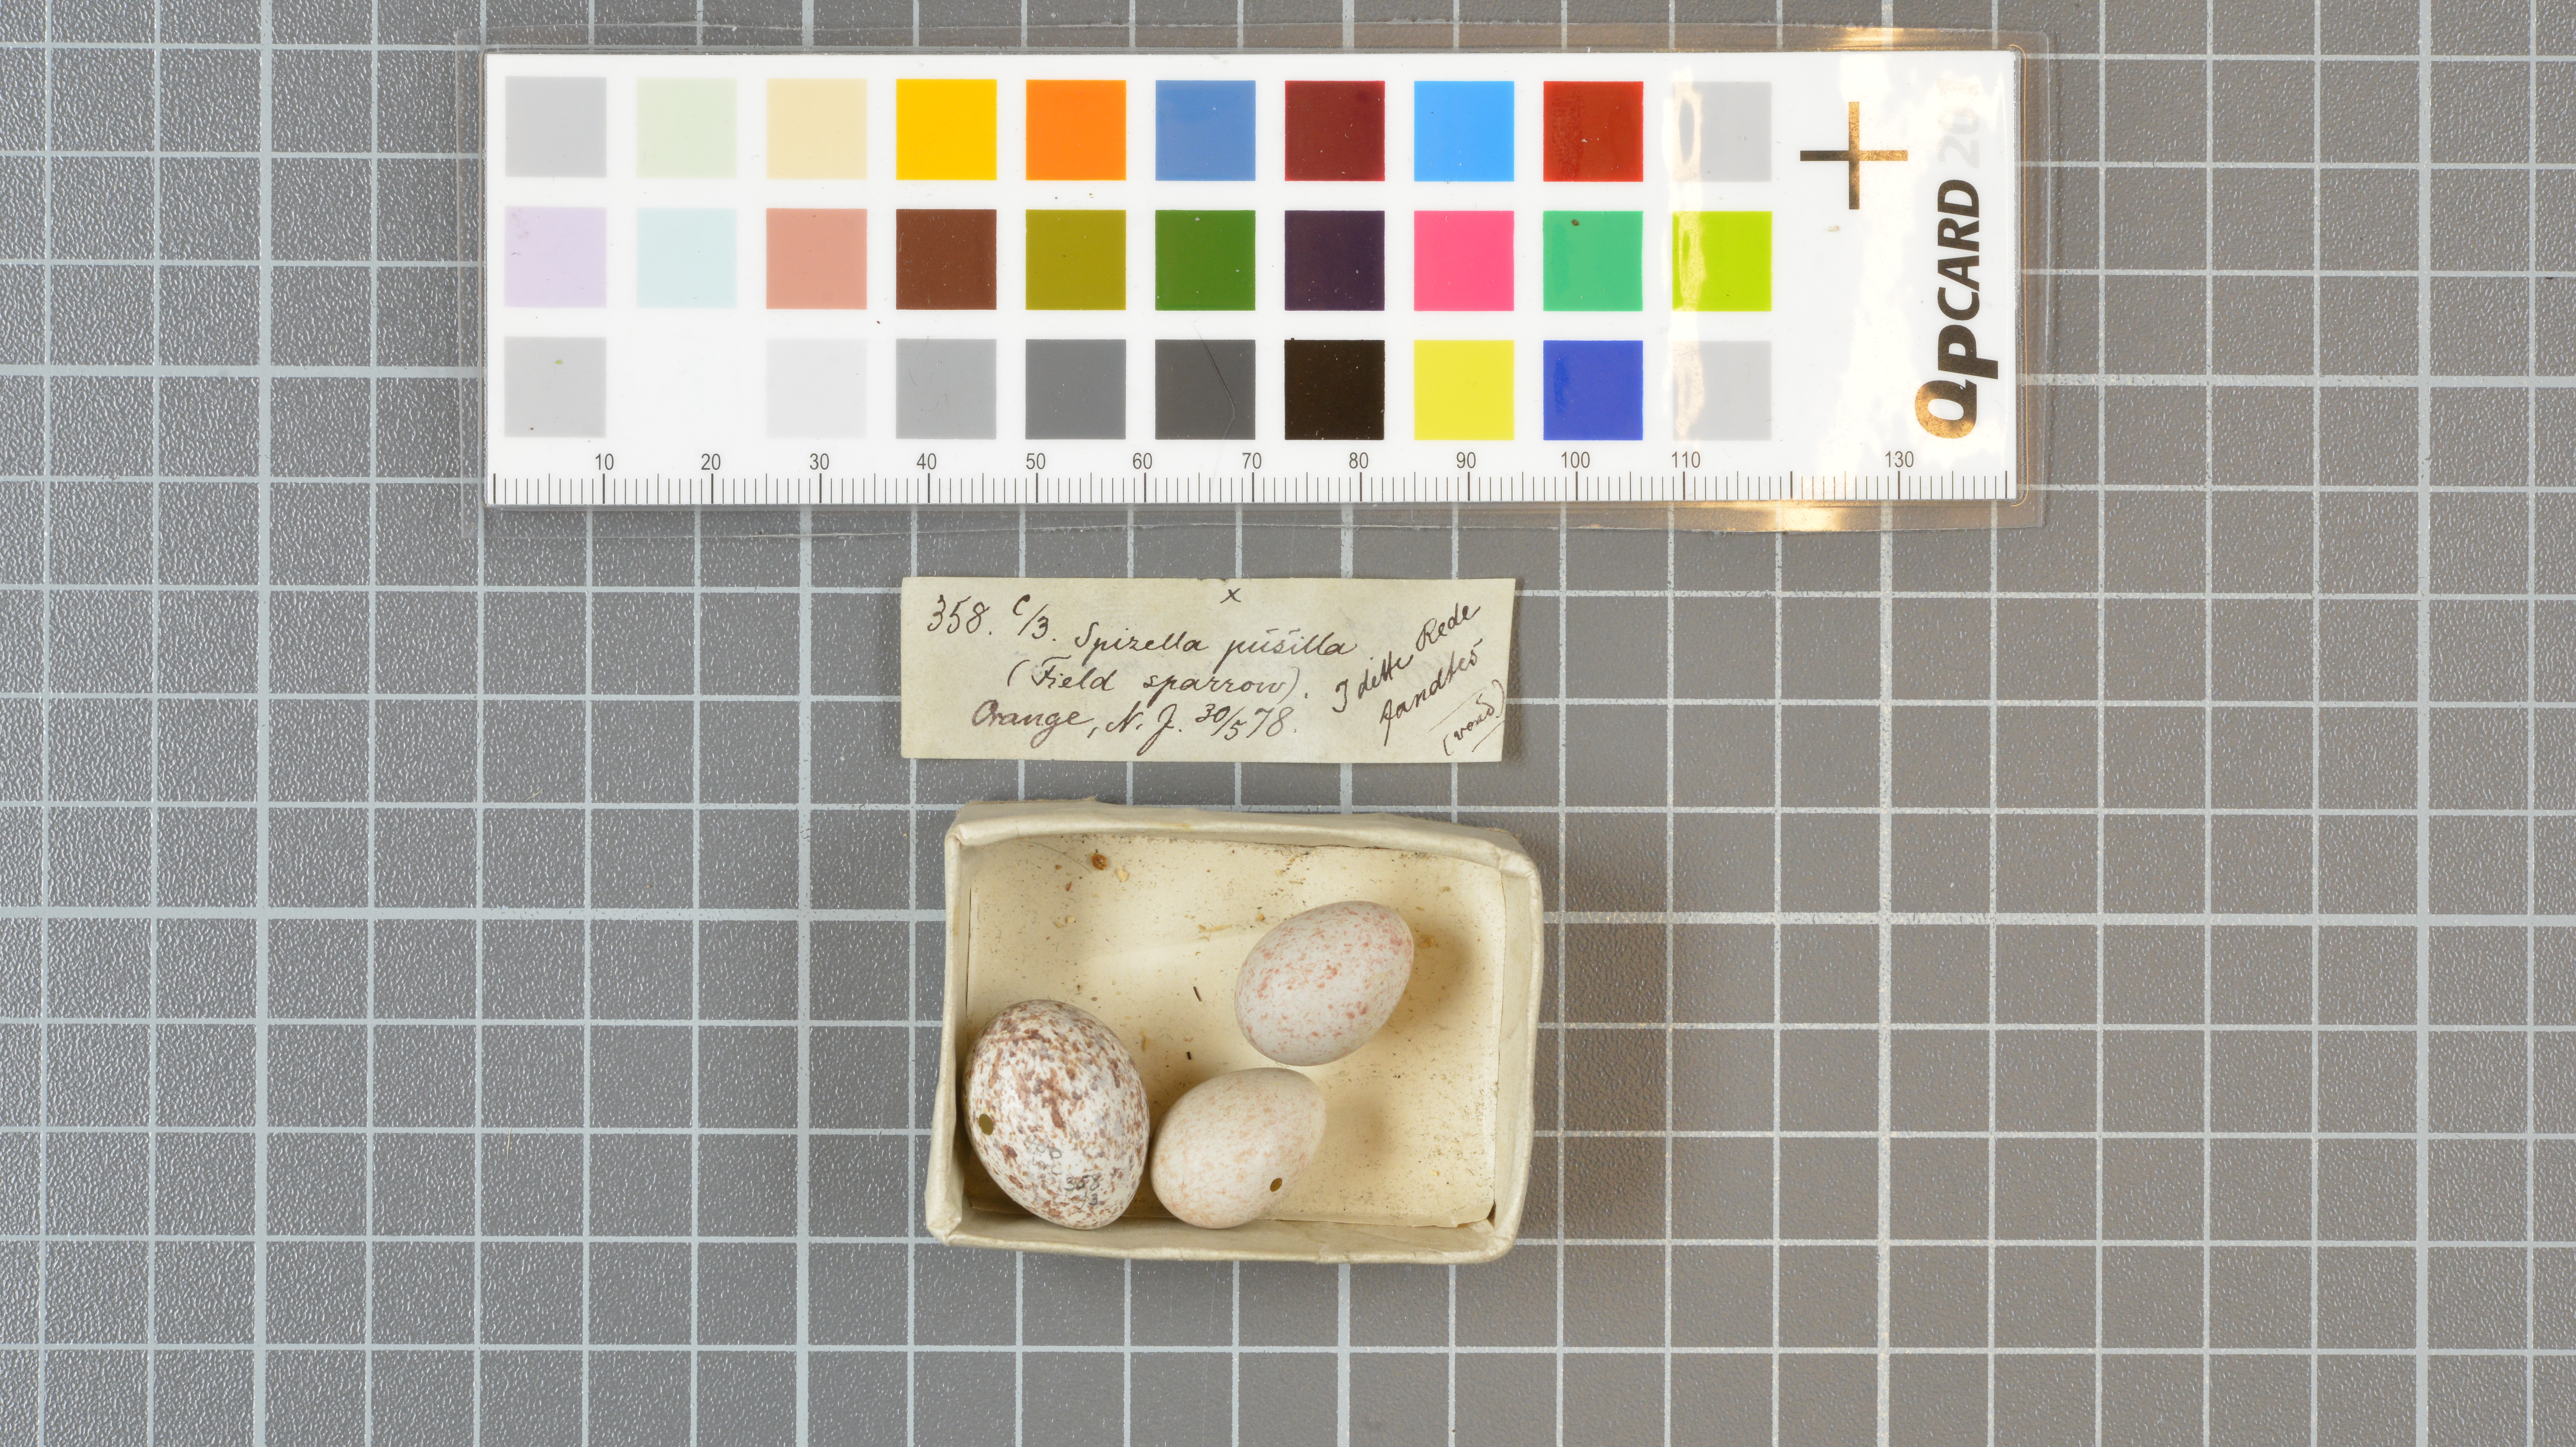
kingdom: Animalia
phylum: Chordata
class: Aves
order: Passeriformes
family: Passerellidae
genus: Spizella
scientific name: Spizella pusilla
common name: Field sparrow
